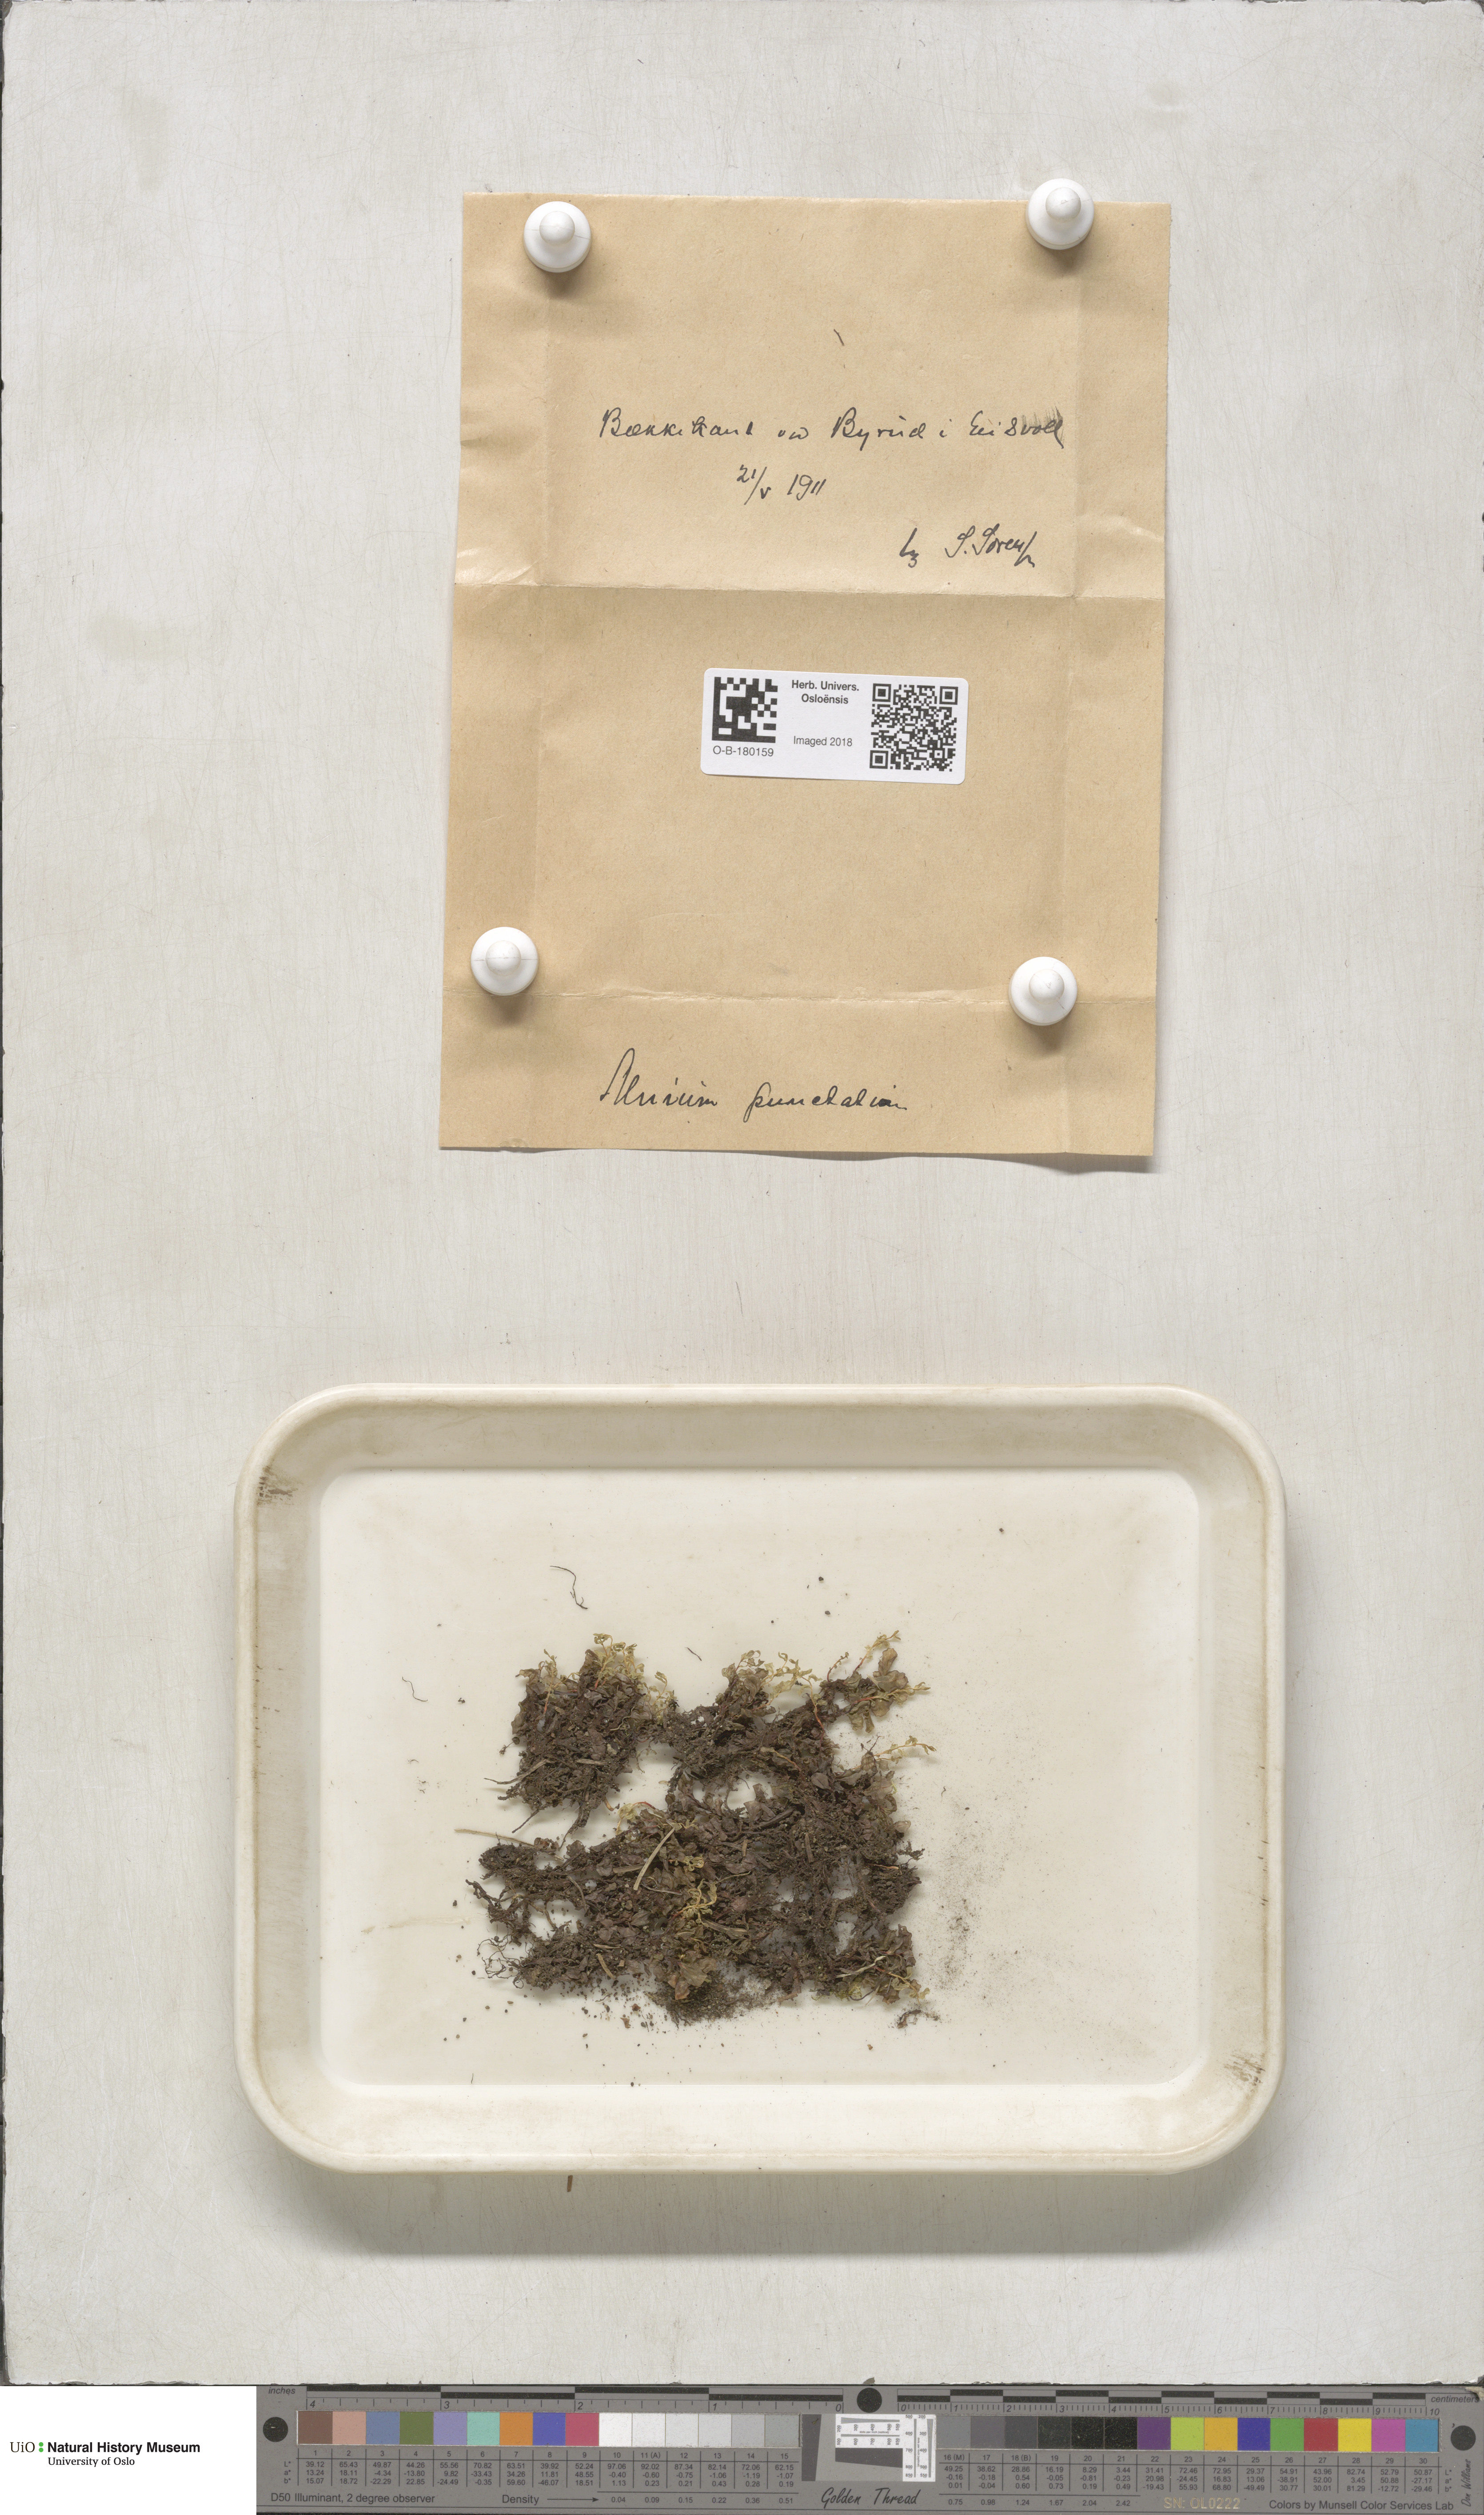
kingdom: Plantae
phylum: Bryophyta
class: Bryopsida
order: Bryales
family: Mniaceae
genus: Rhizomnium
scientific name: Rhizomnium punctatum
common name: Dotted leafy moss
